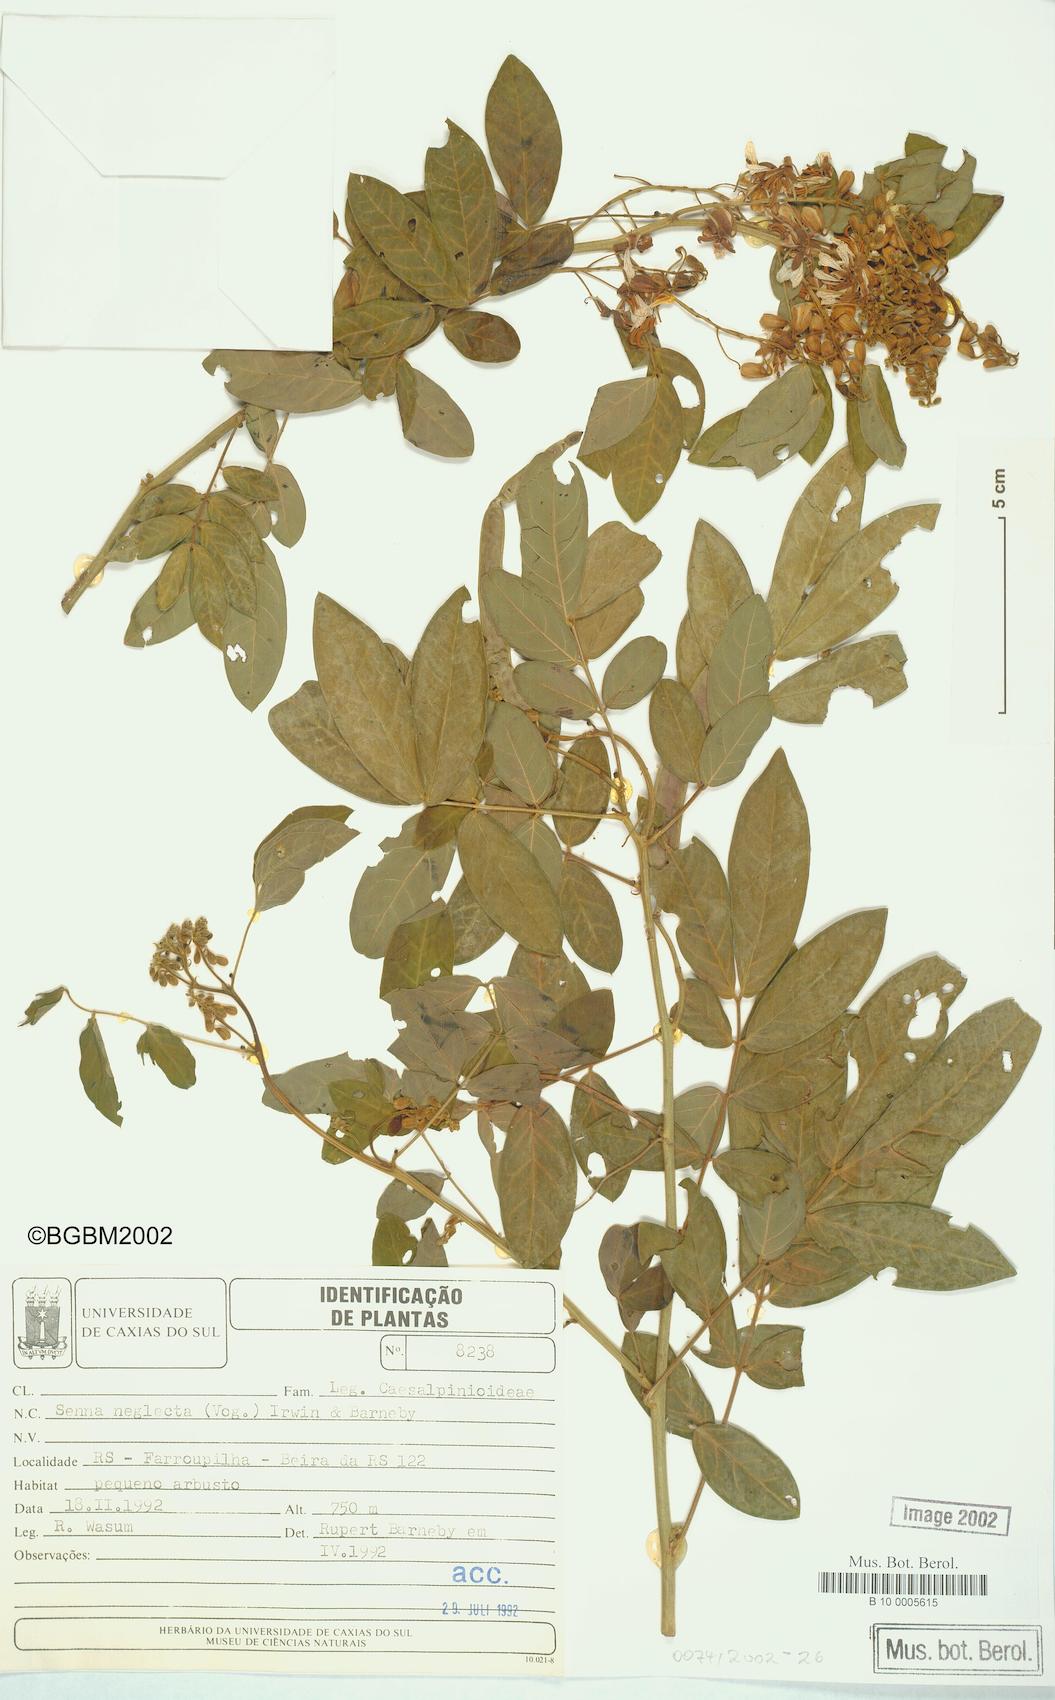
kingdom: Plantae
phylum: Tracheophyta
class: Magnoliopsida
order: Fabales
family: Fabaceae
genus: Senna
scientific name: Senna neglecta
